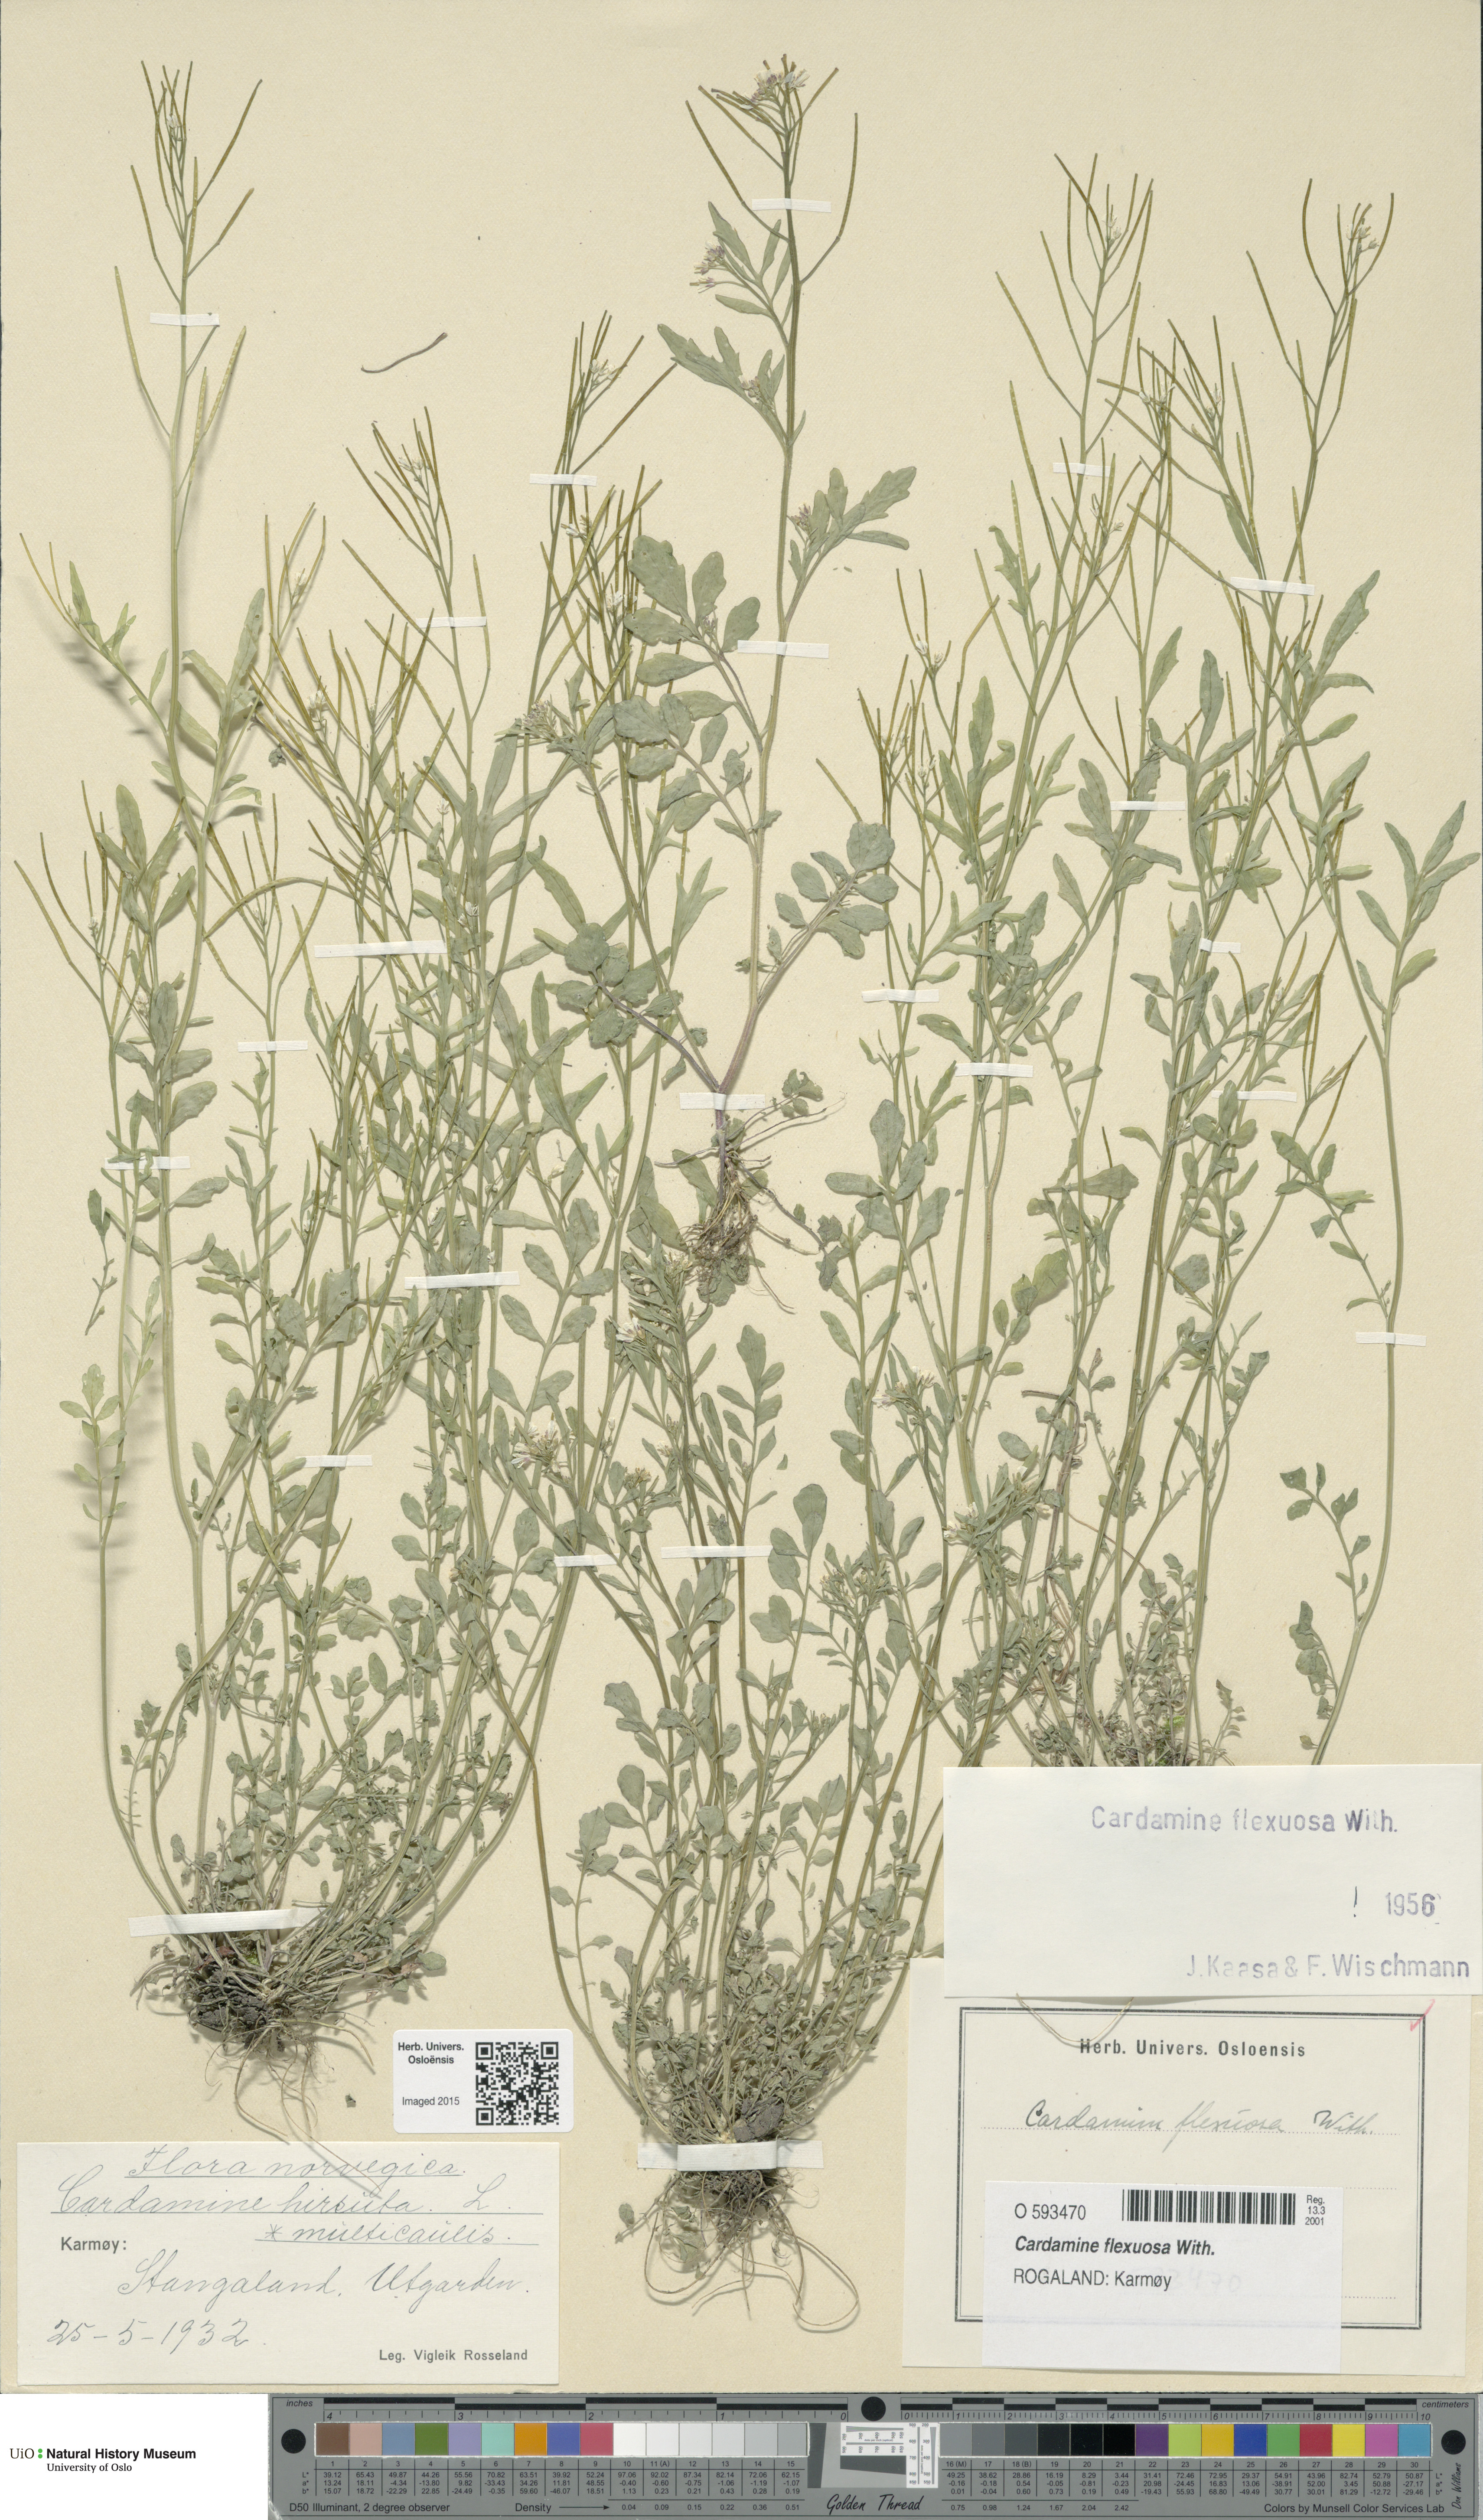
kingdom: Plantae
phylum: Tracheophyta
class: Magnoliopsida
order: Brassicales
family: Brassicaceae
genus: Cardamine
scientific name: Cardamine flexuosa
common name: Woodland bittercress
